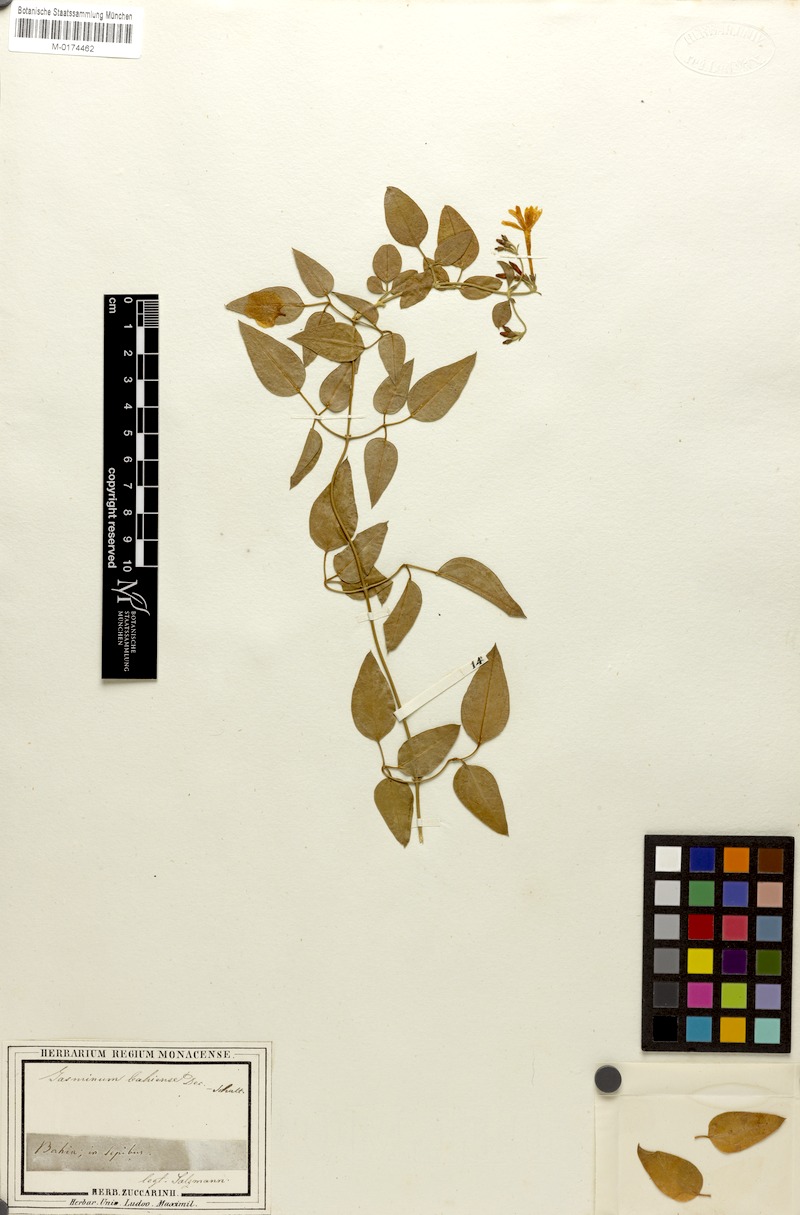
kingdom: Plantae
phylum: Tracheophyta
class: Magnoliopsida
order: Lamiales
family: Oleaceae
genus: Jasminum
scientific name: Jasminum fluminense
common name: Brazilian jasmine
